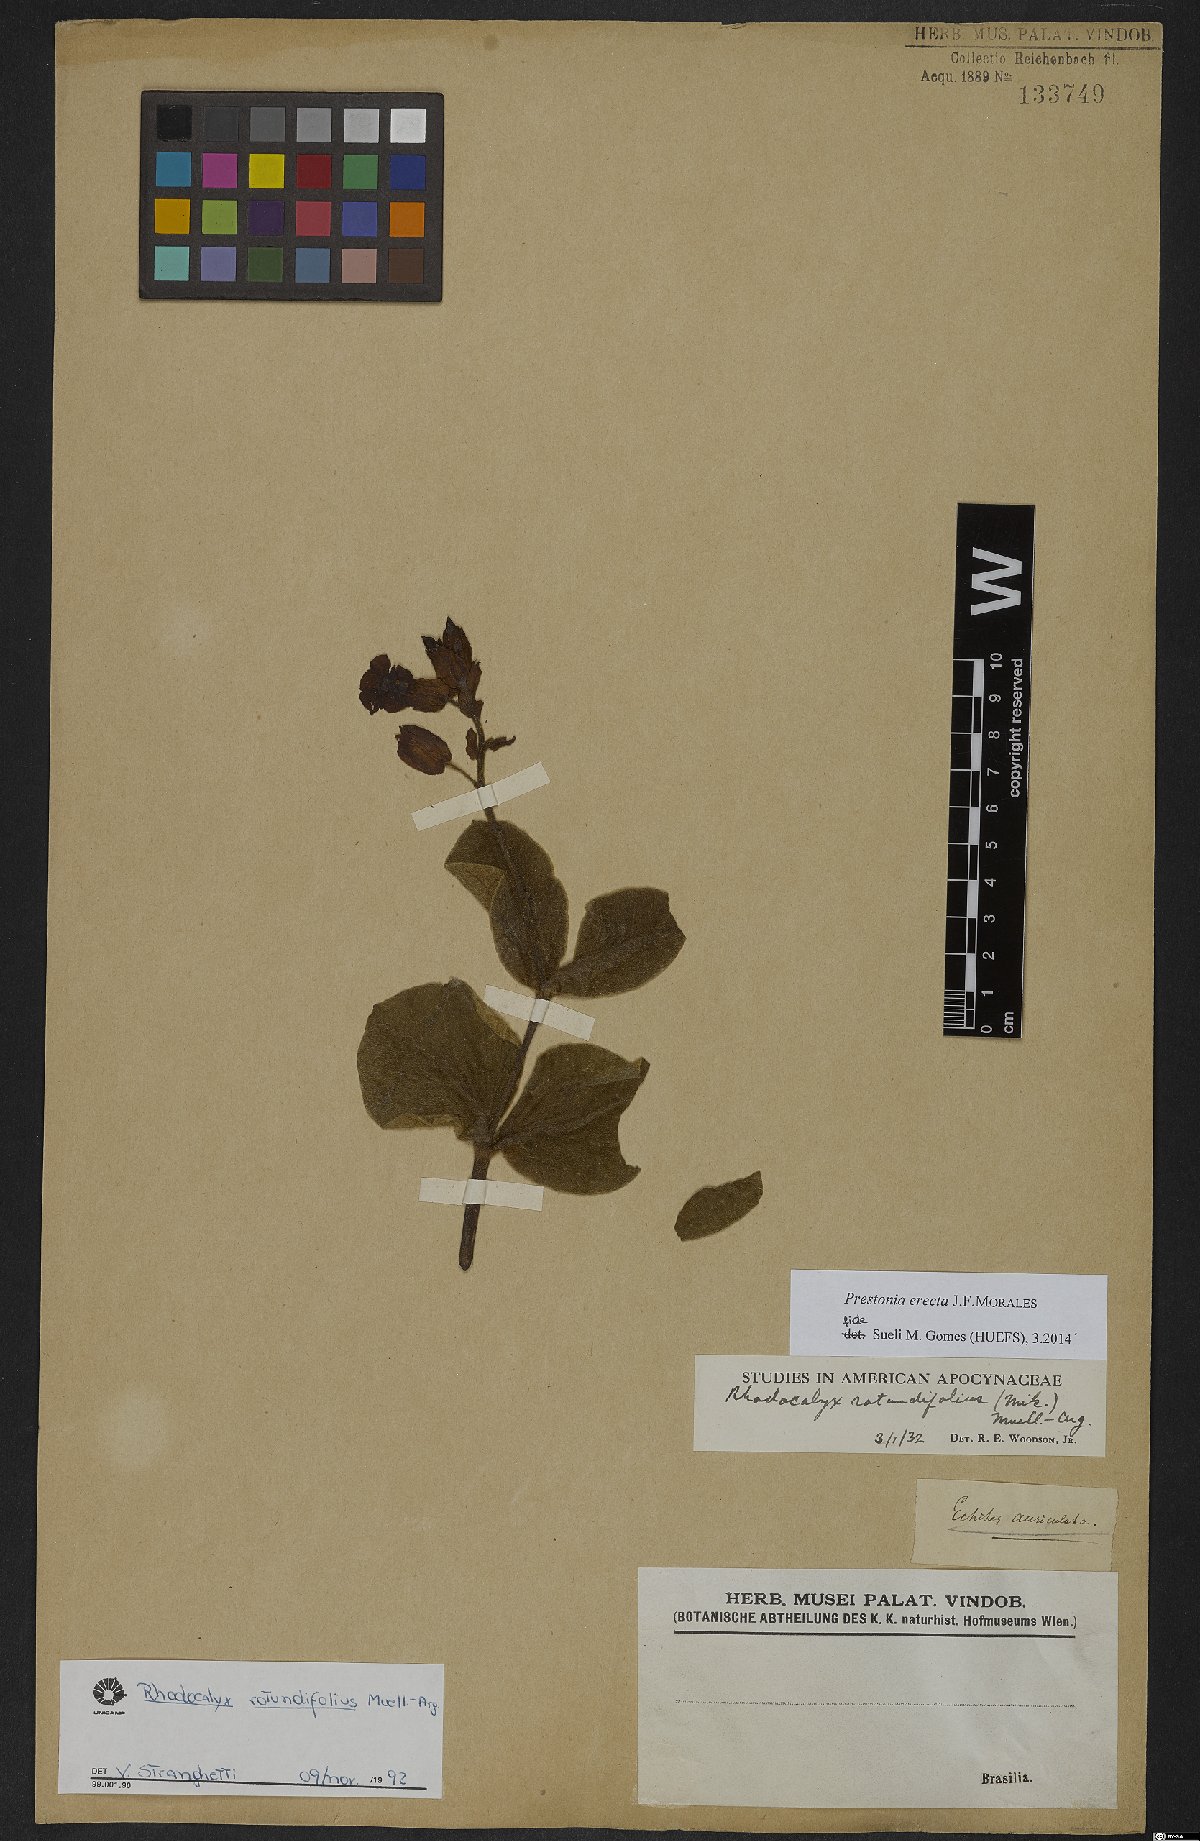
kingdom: Plantae
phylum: Tracheophyta
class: Magnoliopsida
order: Gentianales
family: Apocynaceae
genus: Prestonia
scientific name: Prestonia erecta
